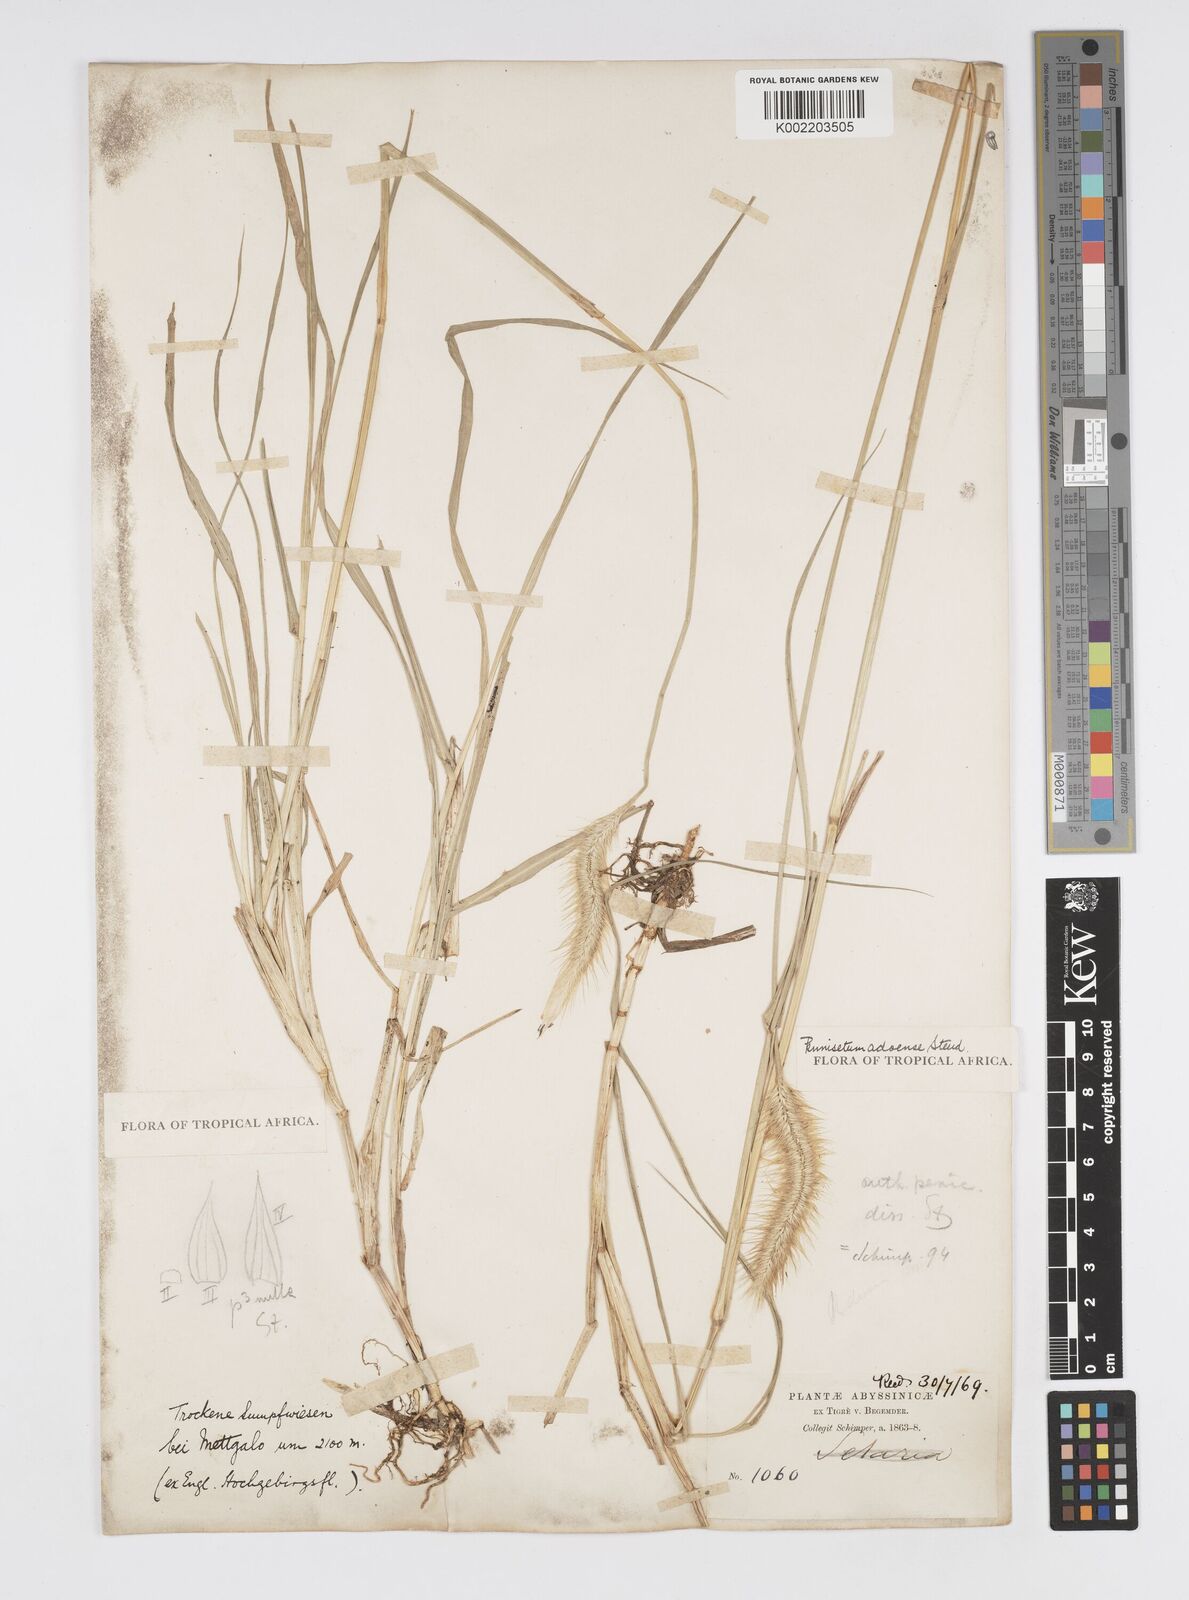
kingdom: Plantae
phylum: Tracheophyta
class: Liliopsida
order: Poales
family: Poaceae
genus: Cenchrus
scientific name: Cenchrus geniculatus
